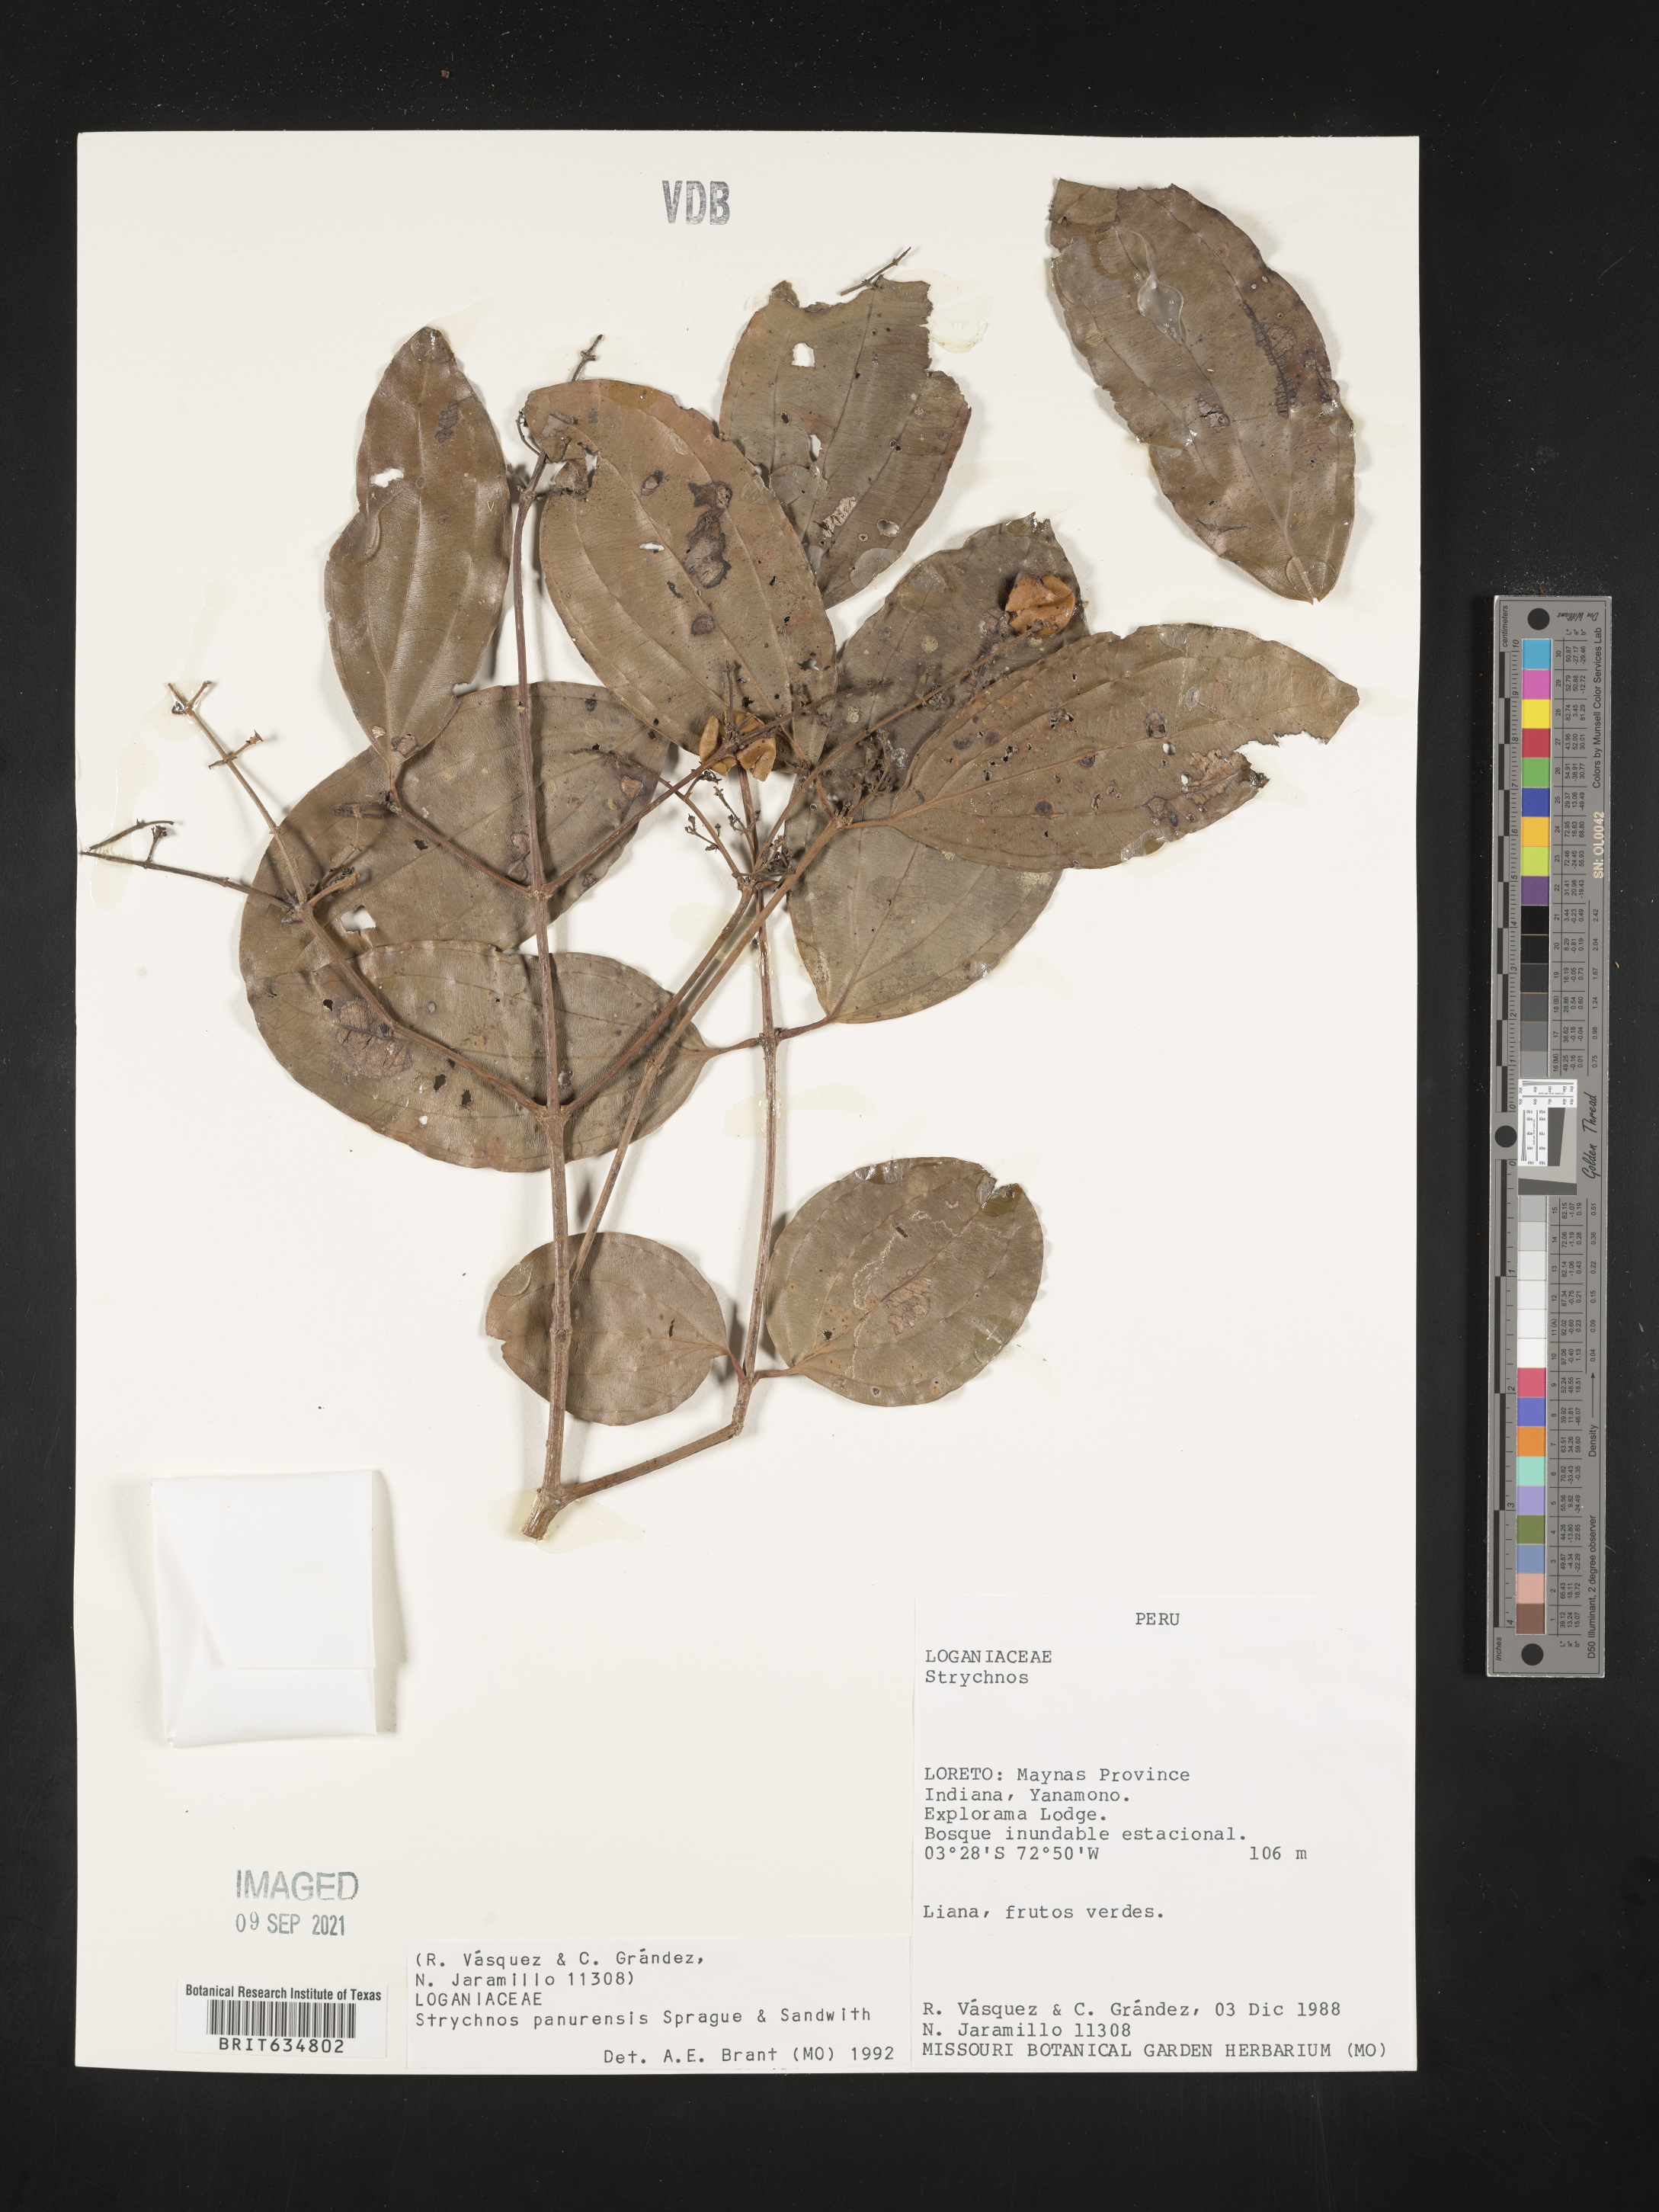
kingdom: Plantae
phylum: Tracheophyta
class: Magnoliopsida
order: Gentianales
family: Loganiaceae
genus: Strychnos
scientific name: Strychnos
